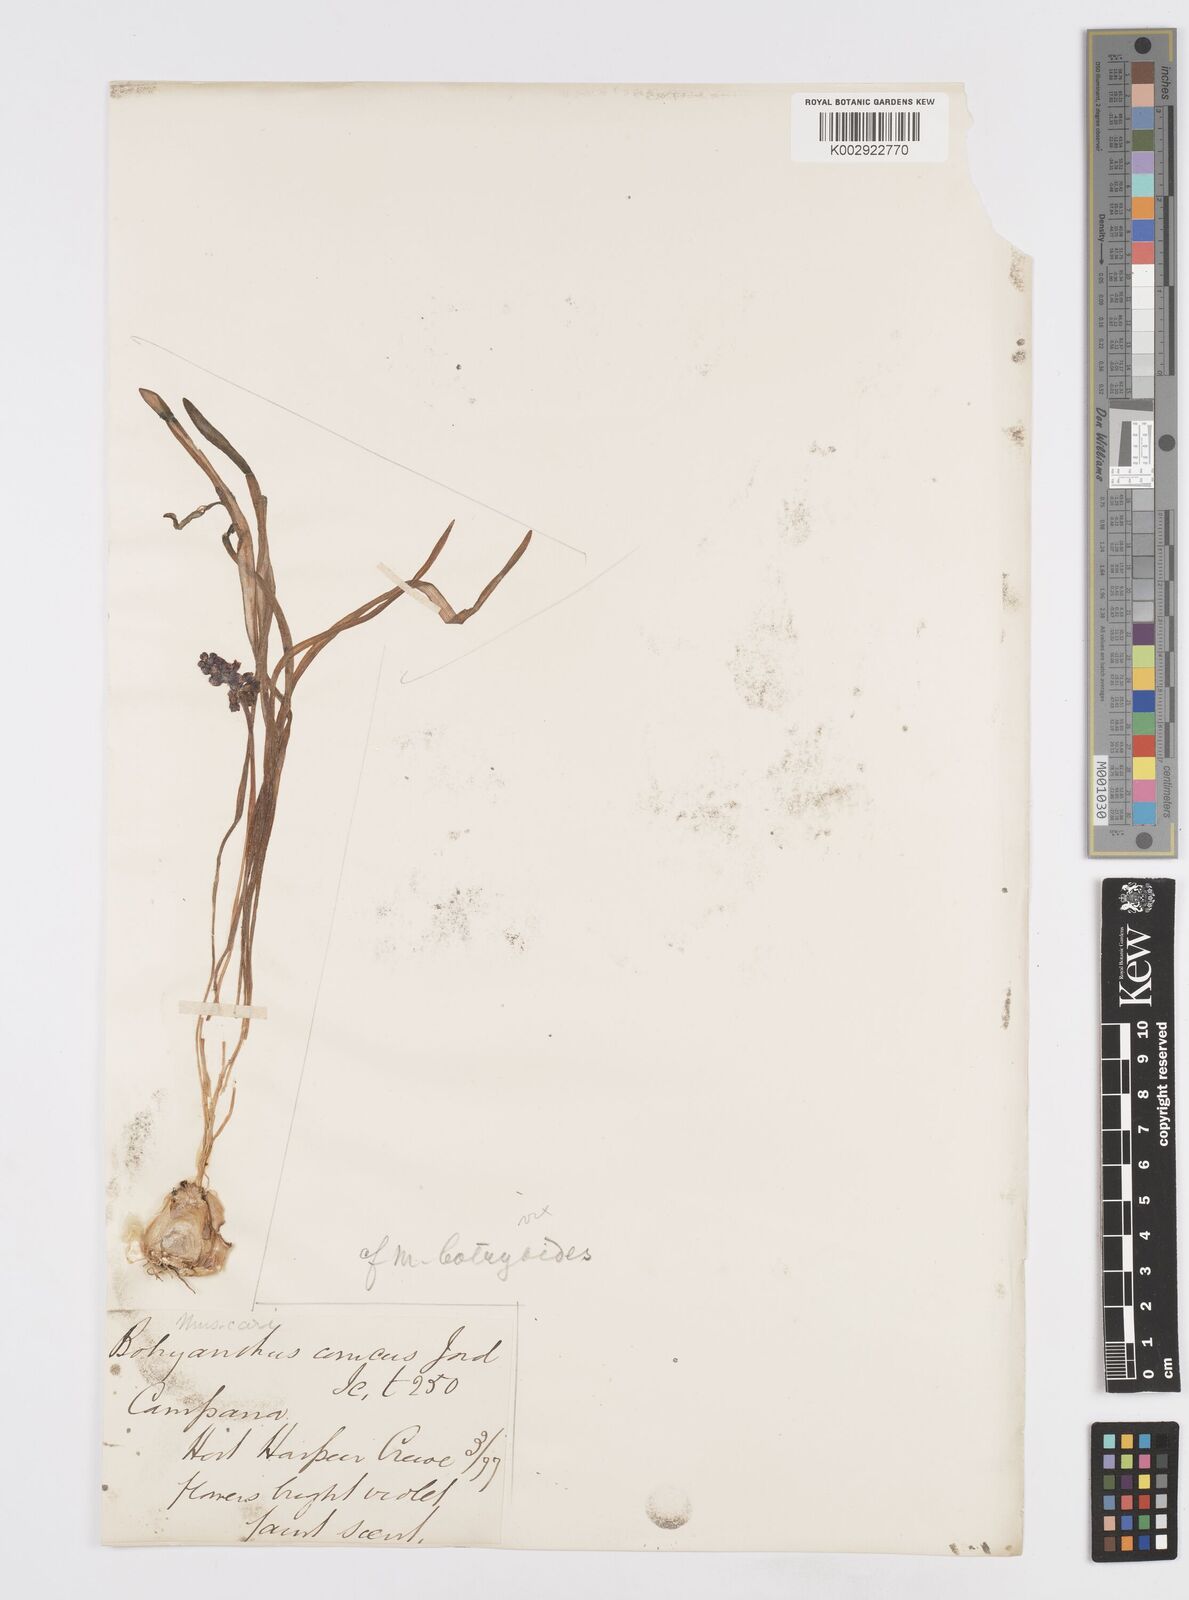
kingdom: Plantae
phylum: Tracheophyta
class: Liliopsida
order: Asparagales
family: Asparagaceae
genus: Muscari
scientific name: Muscari armeniacum
